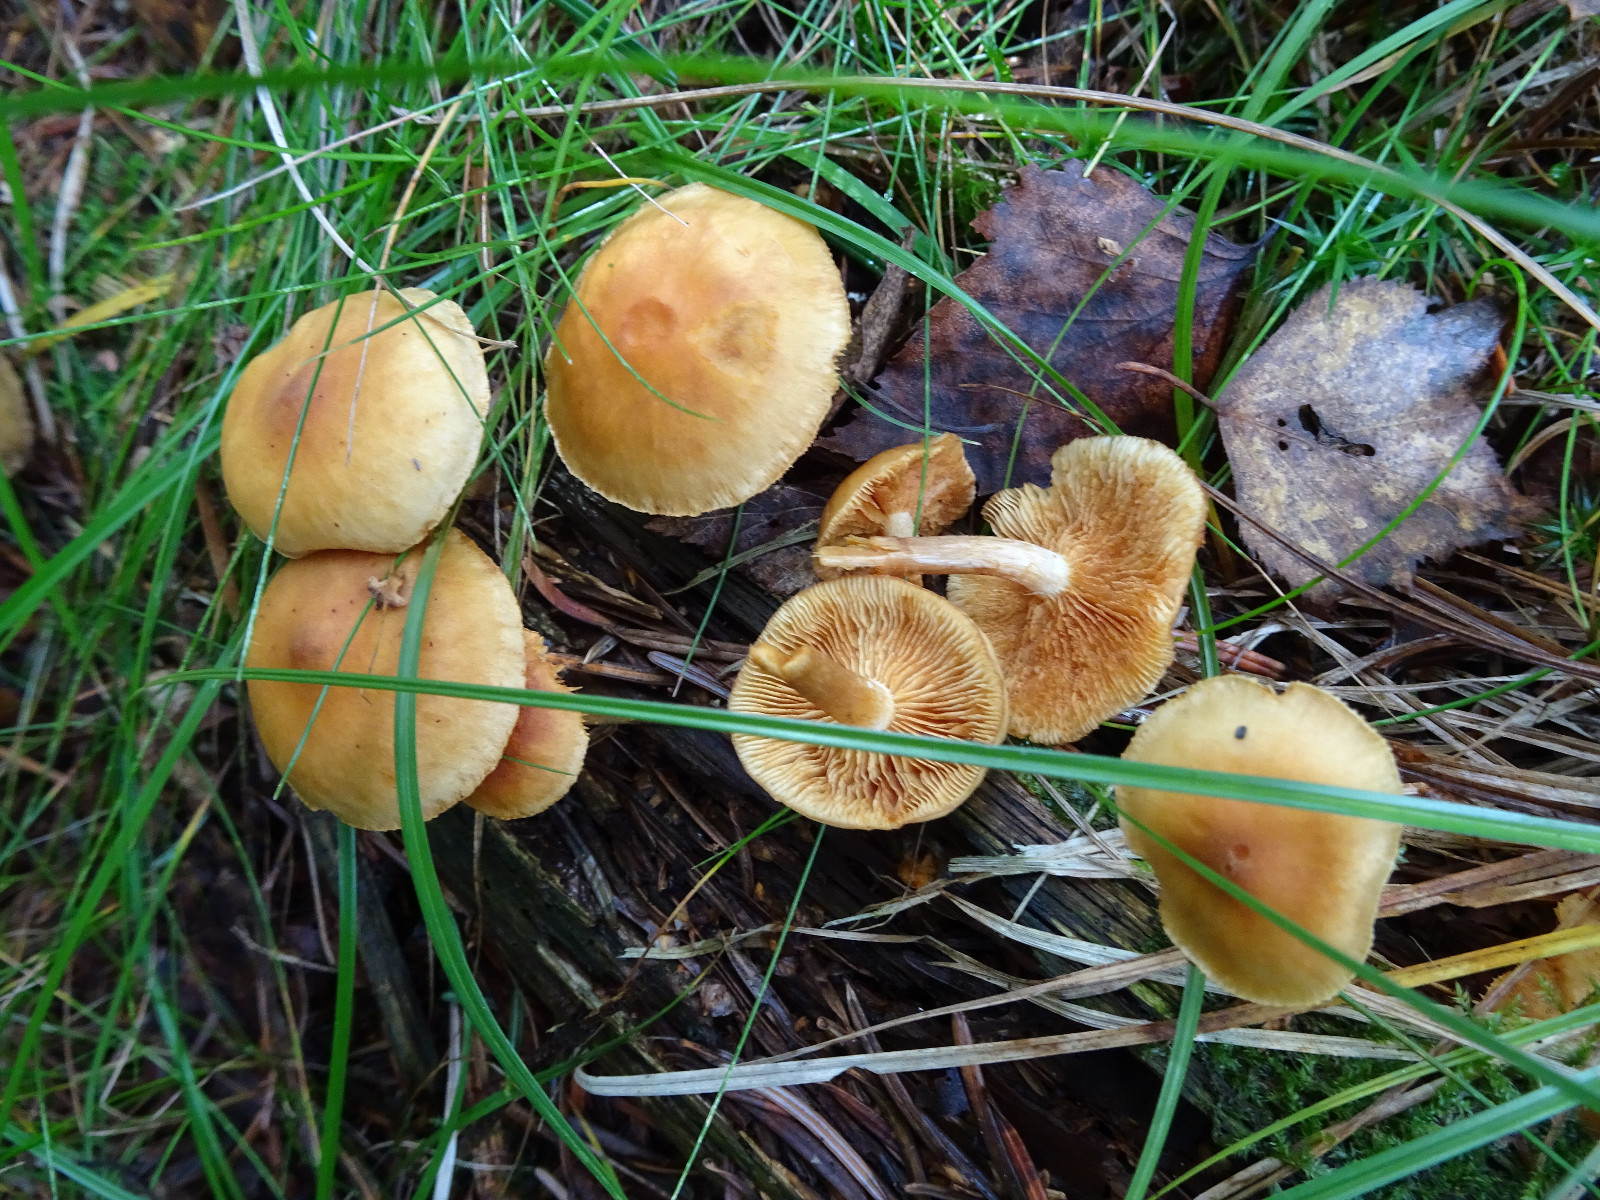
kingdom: Fungi
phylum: Basidiomycota
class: Agaricomycetes
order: Agaricales
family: Hymenogastraceae
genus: Gymnopilus
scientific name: Gymnopilus penetrans
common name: plettet flammehat
